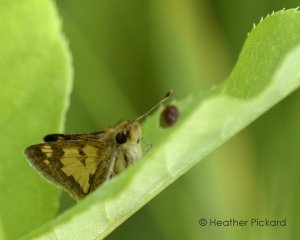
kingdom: Animalia
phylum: Arthropoda
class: Insecta
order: Lepidoptera
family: Hesperiidae
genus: Polites
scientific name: Polites coras
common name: Peck's Skipper
